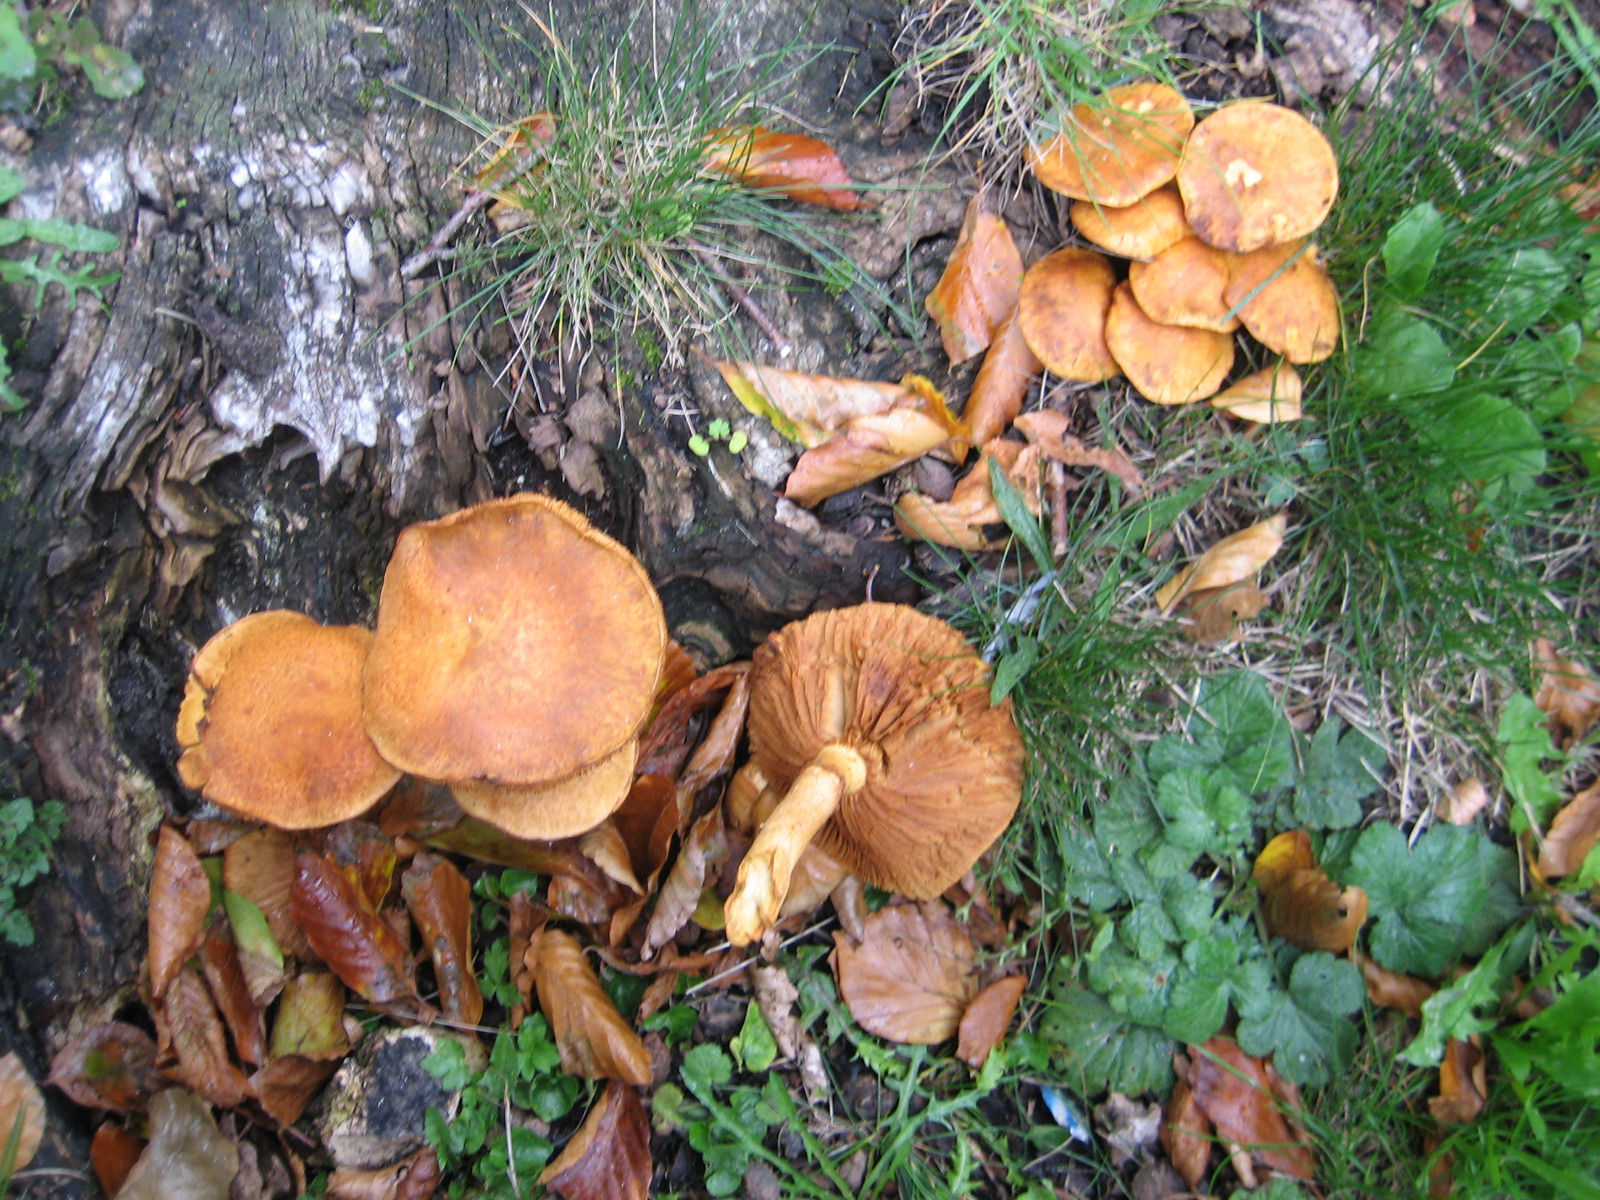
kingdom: Fungi
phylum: Basidiomycota
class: Agaricomycetes
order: Agaricales
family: Hymenogastraceae
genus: Gymnopilus
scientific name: Gymnopilus spectabilis
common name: fibret flammehat
